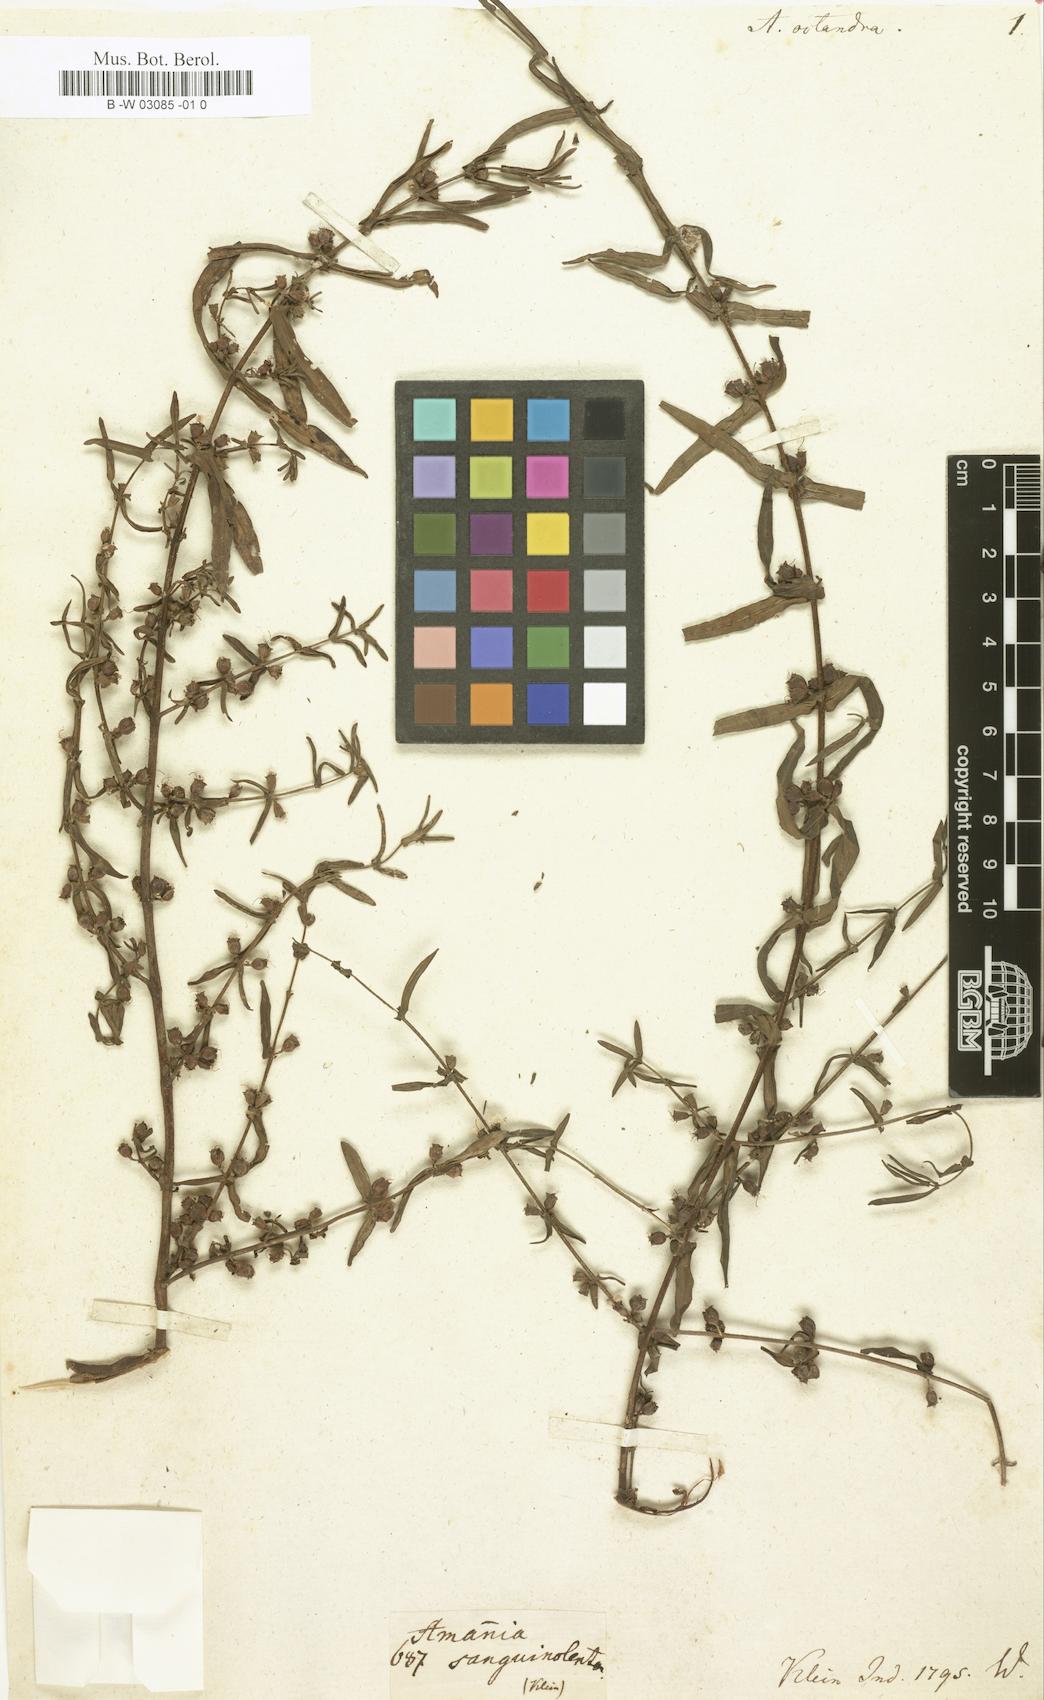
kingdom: Plantae
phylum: Tracheophyta
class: Magnoliopsida
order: Myrtales
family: Lythraceae
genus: Ammannia
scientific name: Ammannia octandra
